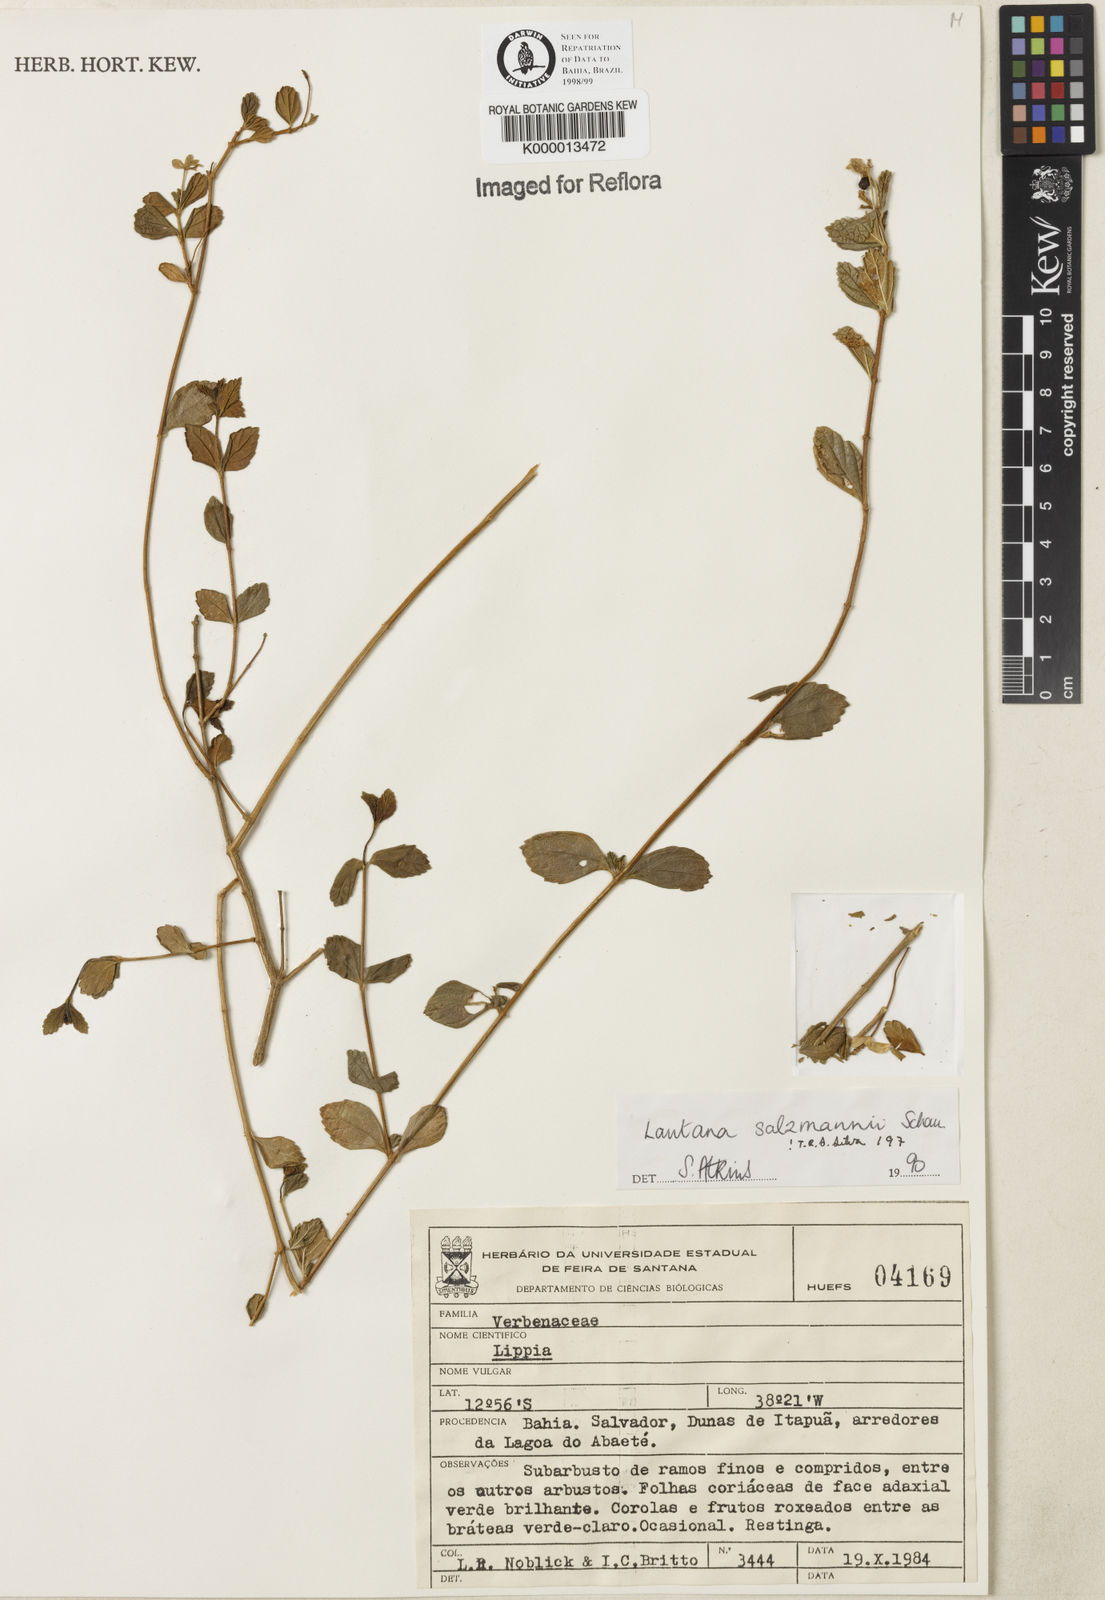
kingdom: Plantae
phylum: Tracheophyta
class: Magnoliopsida
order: Lamiales
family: Verbenaceae
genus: Lantana
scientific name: Lantana salzmannii
